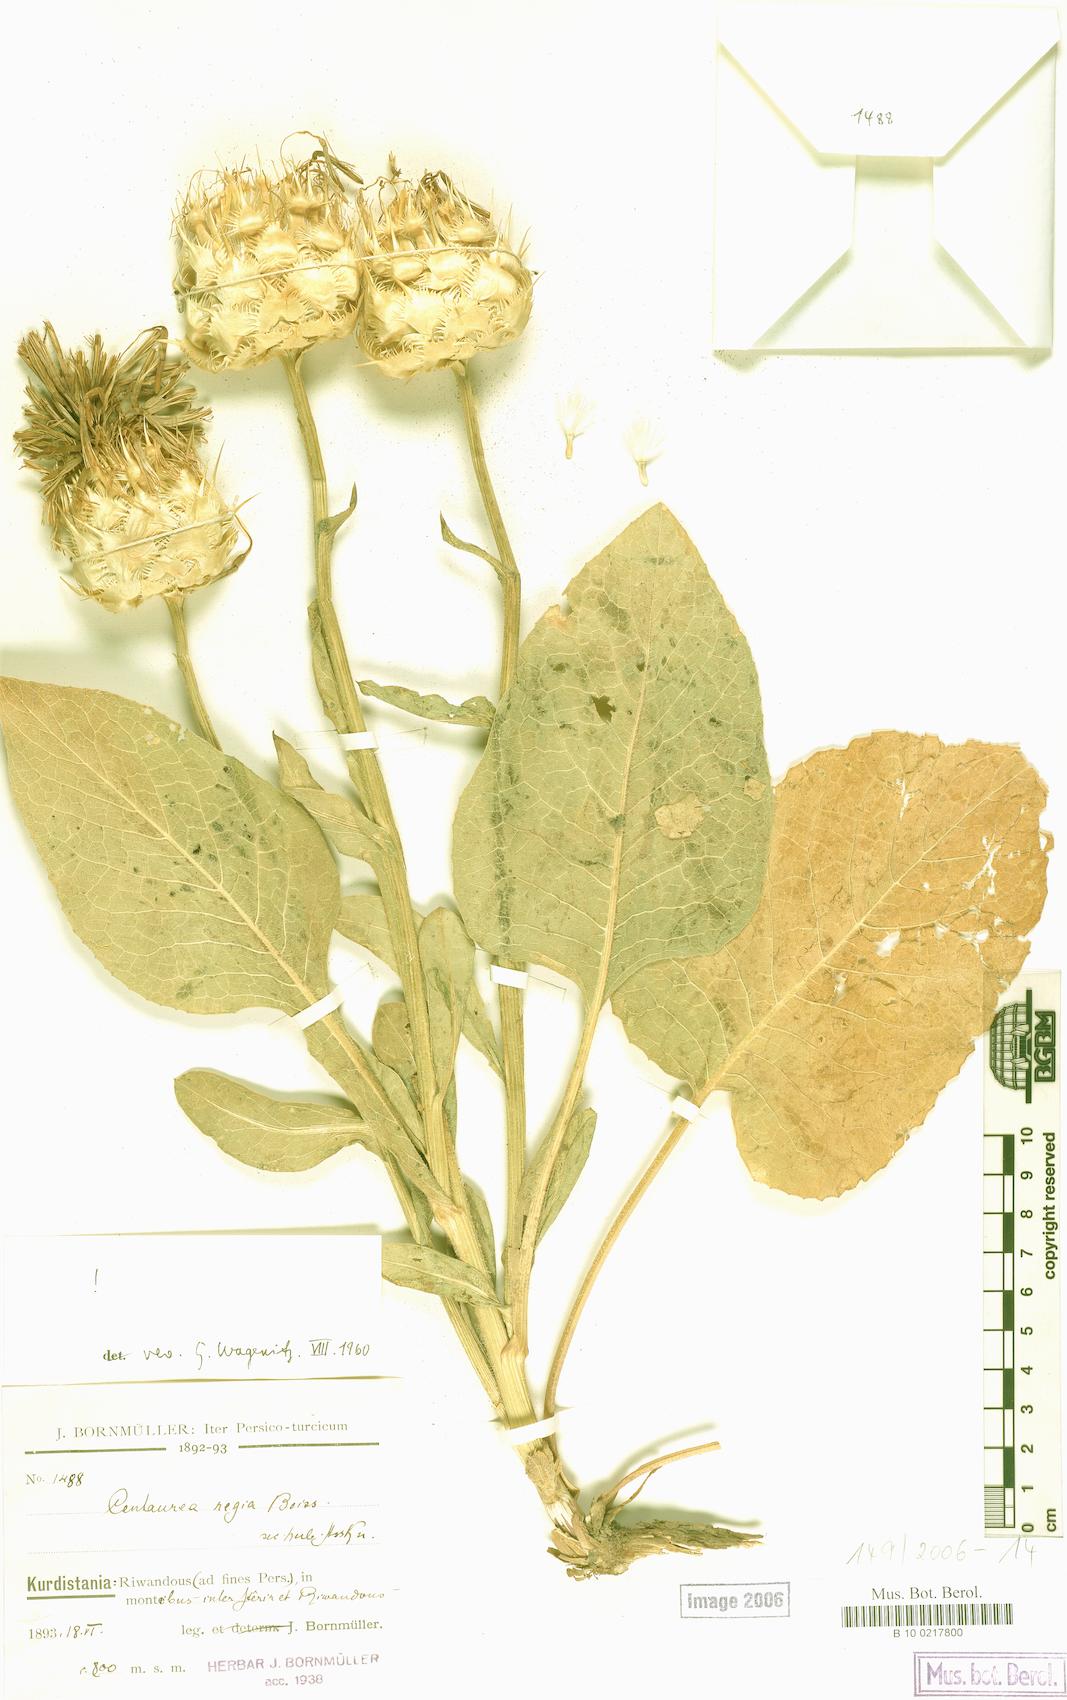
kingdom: Plantae
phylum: Tracheophyta
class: Magnoliopsida
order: Asterales
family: Asteraceae
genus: Centaurea
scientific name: Centaurea regia
